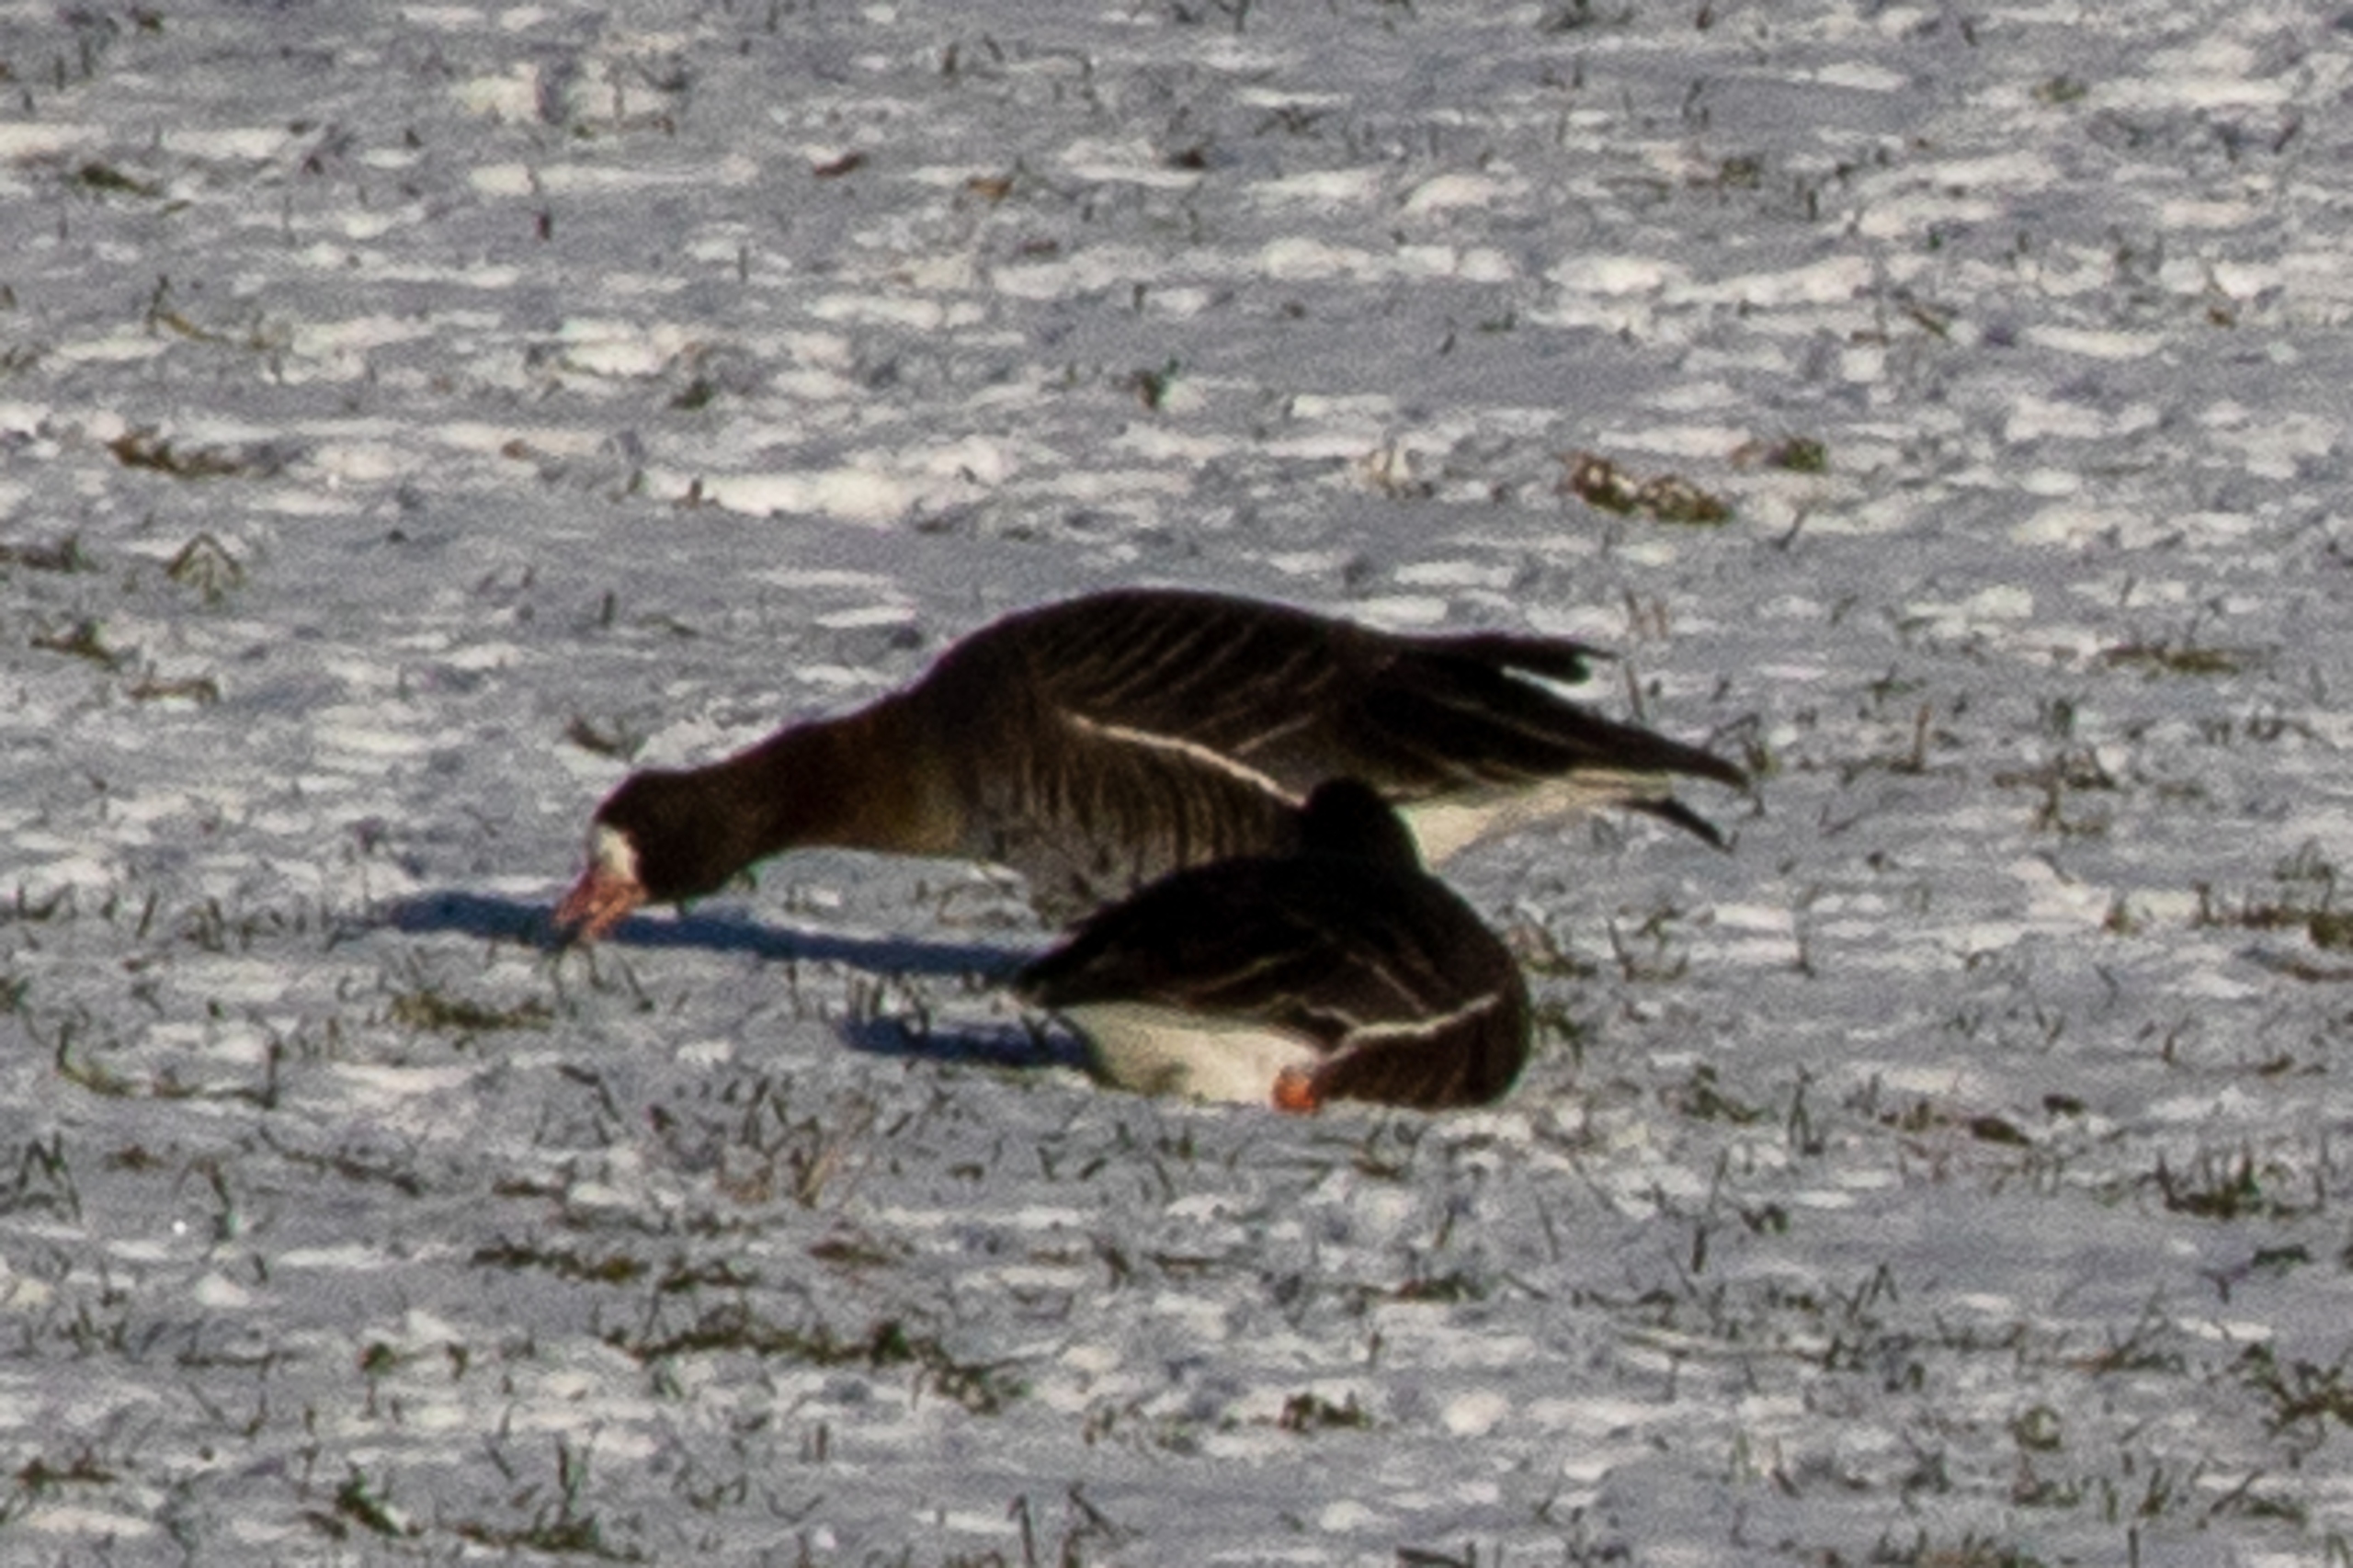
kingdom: Animalia
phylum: Chordata
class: Aves
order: Anseriformes
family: Anatidae
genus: Anser
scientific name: Anser albifrons
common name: Blisgås
